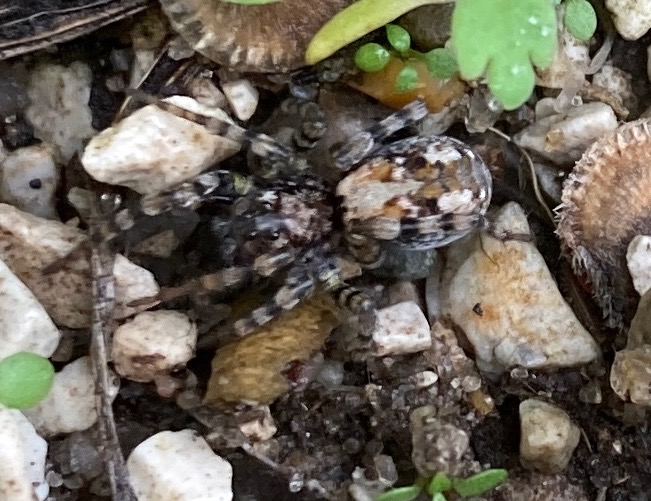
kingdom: Animalia
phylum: Arthropoda
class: Arachnida
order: Araneae
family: Lycosidae
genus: Arctosa
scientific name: Arctosa perita
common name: Klitgraveedderkop
